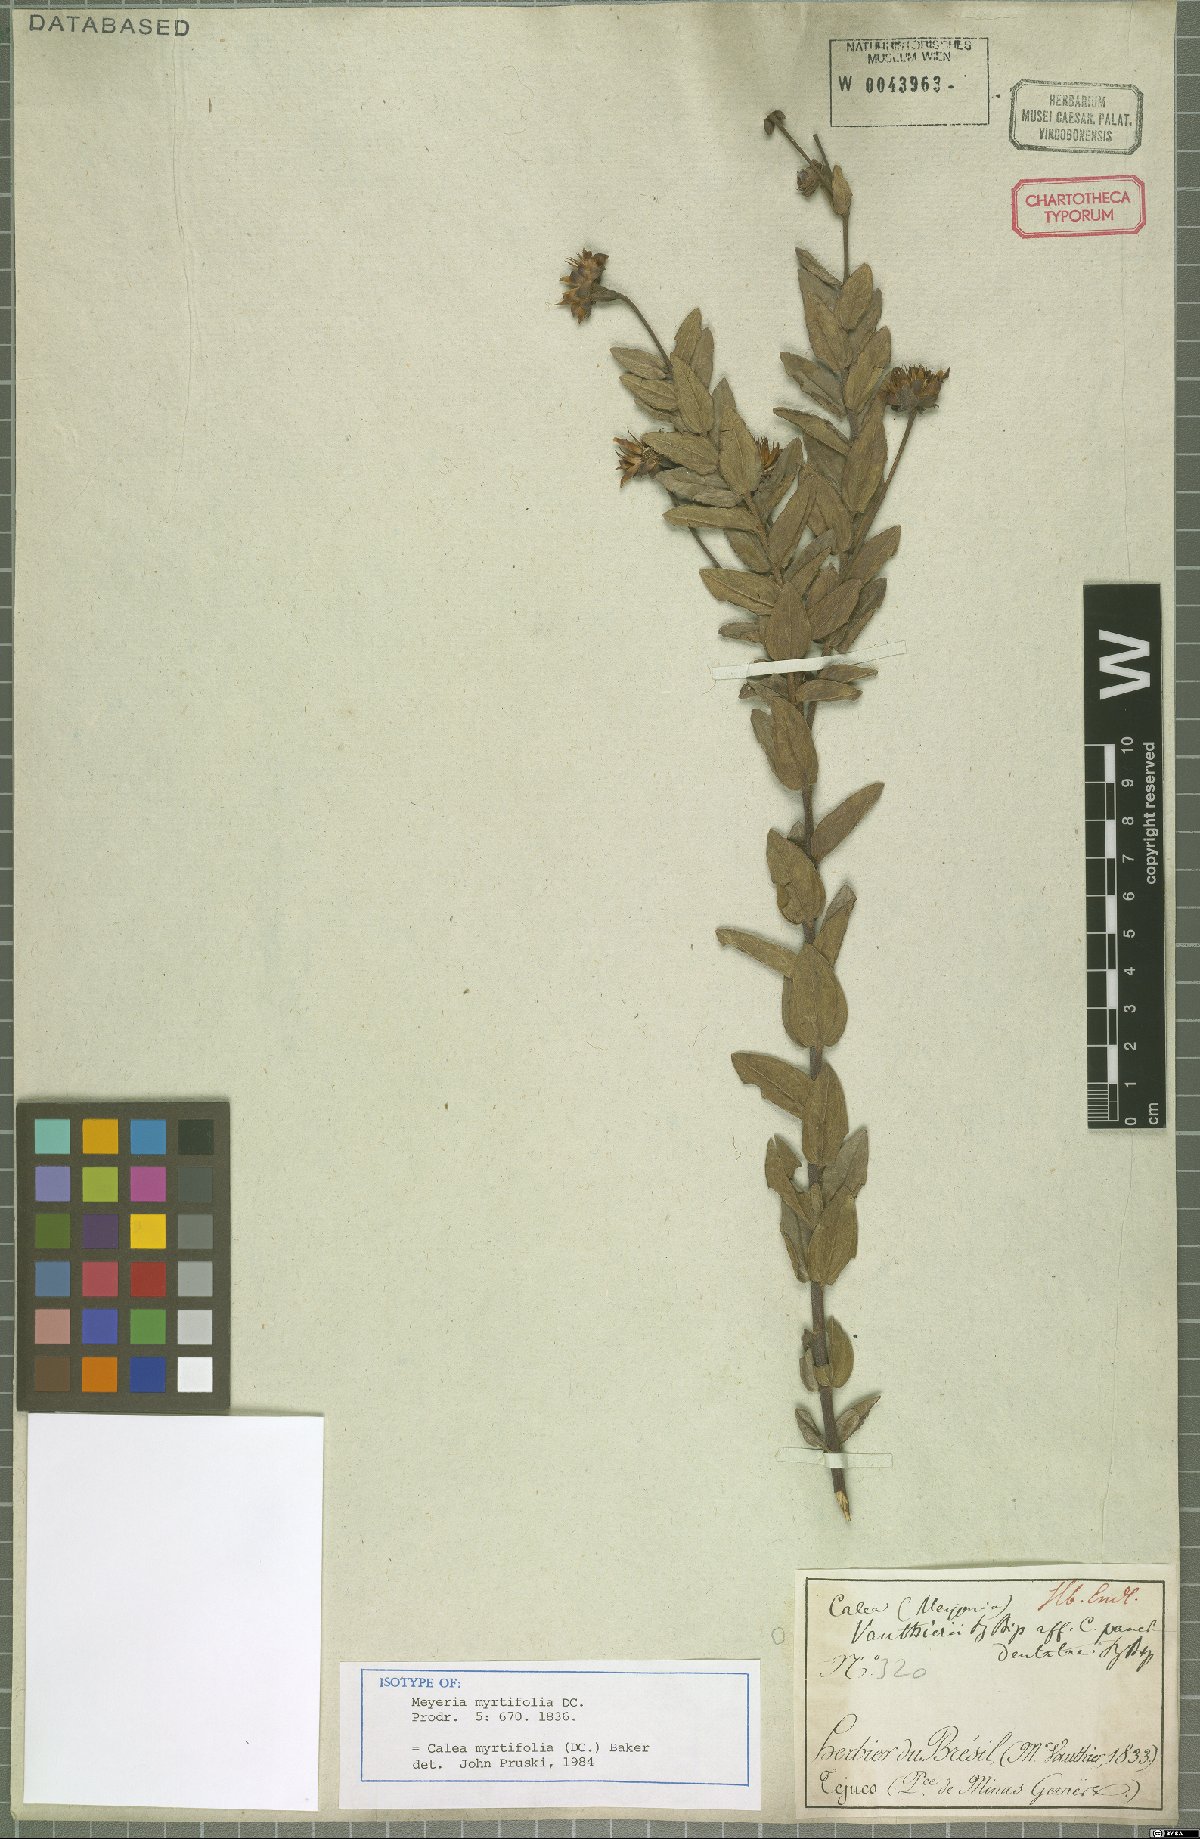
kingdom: Plantae
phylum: Tracheophyta
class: Magnoliopsida
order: Asterales
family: Asteraceae
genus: Calea
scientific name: Calea myrtifolia
